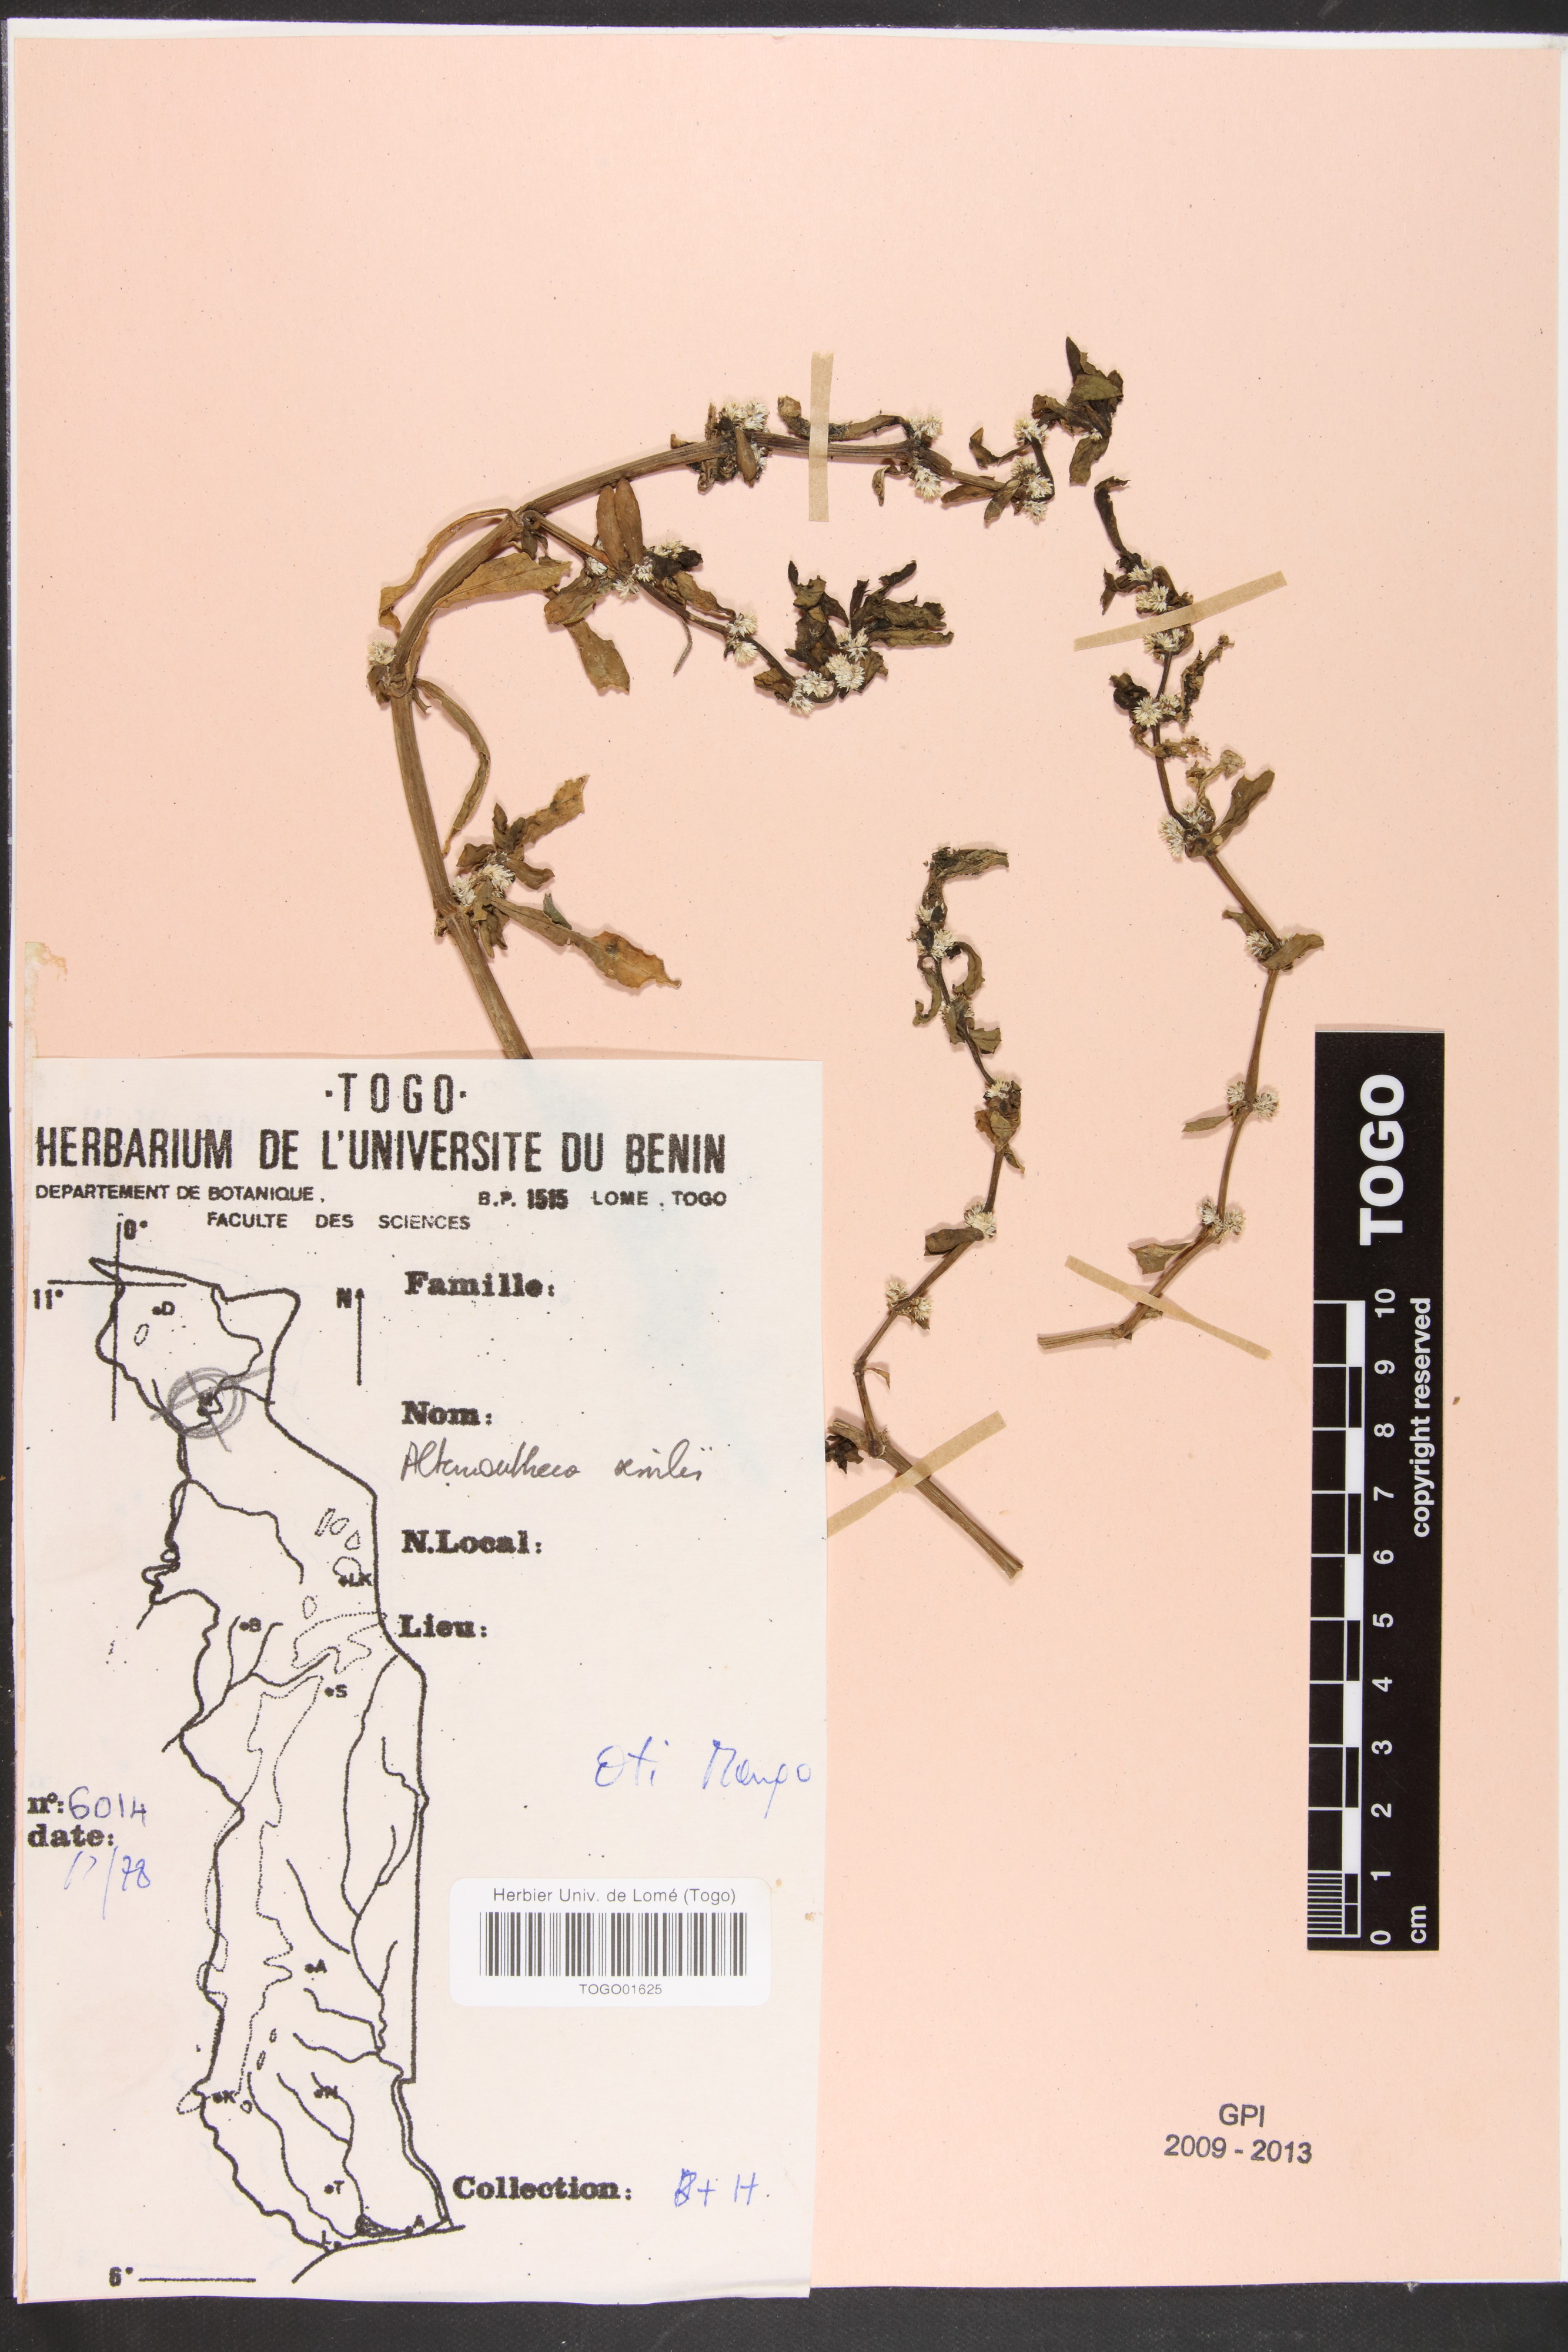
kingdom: Plantae
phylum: Tracheophyta
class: Magnoliopsida
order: Caryophyllales
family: Amaranthaceae
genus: Alternanthera
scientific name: Alternanthera sessilis
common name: Sessile joyweed
